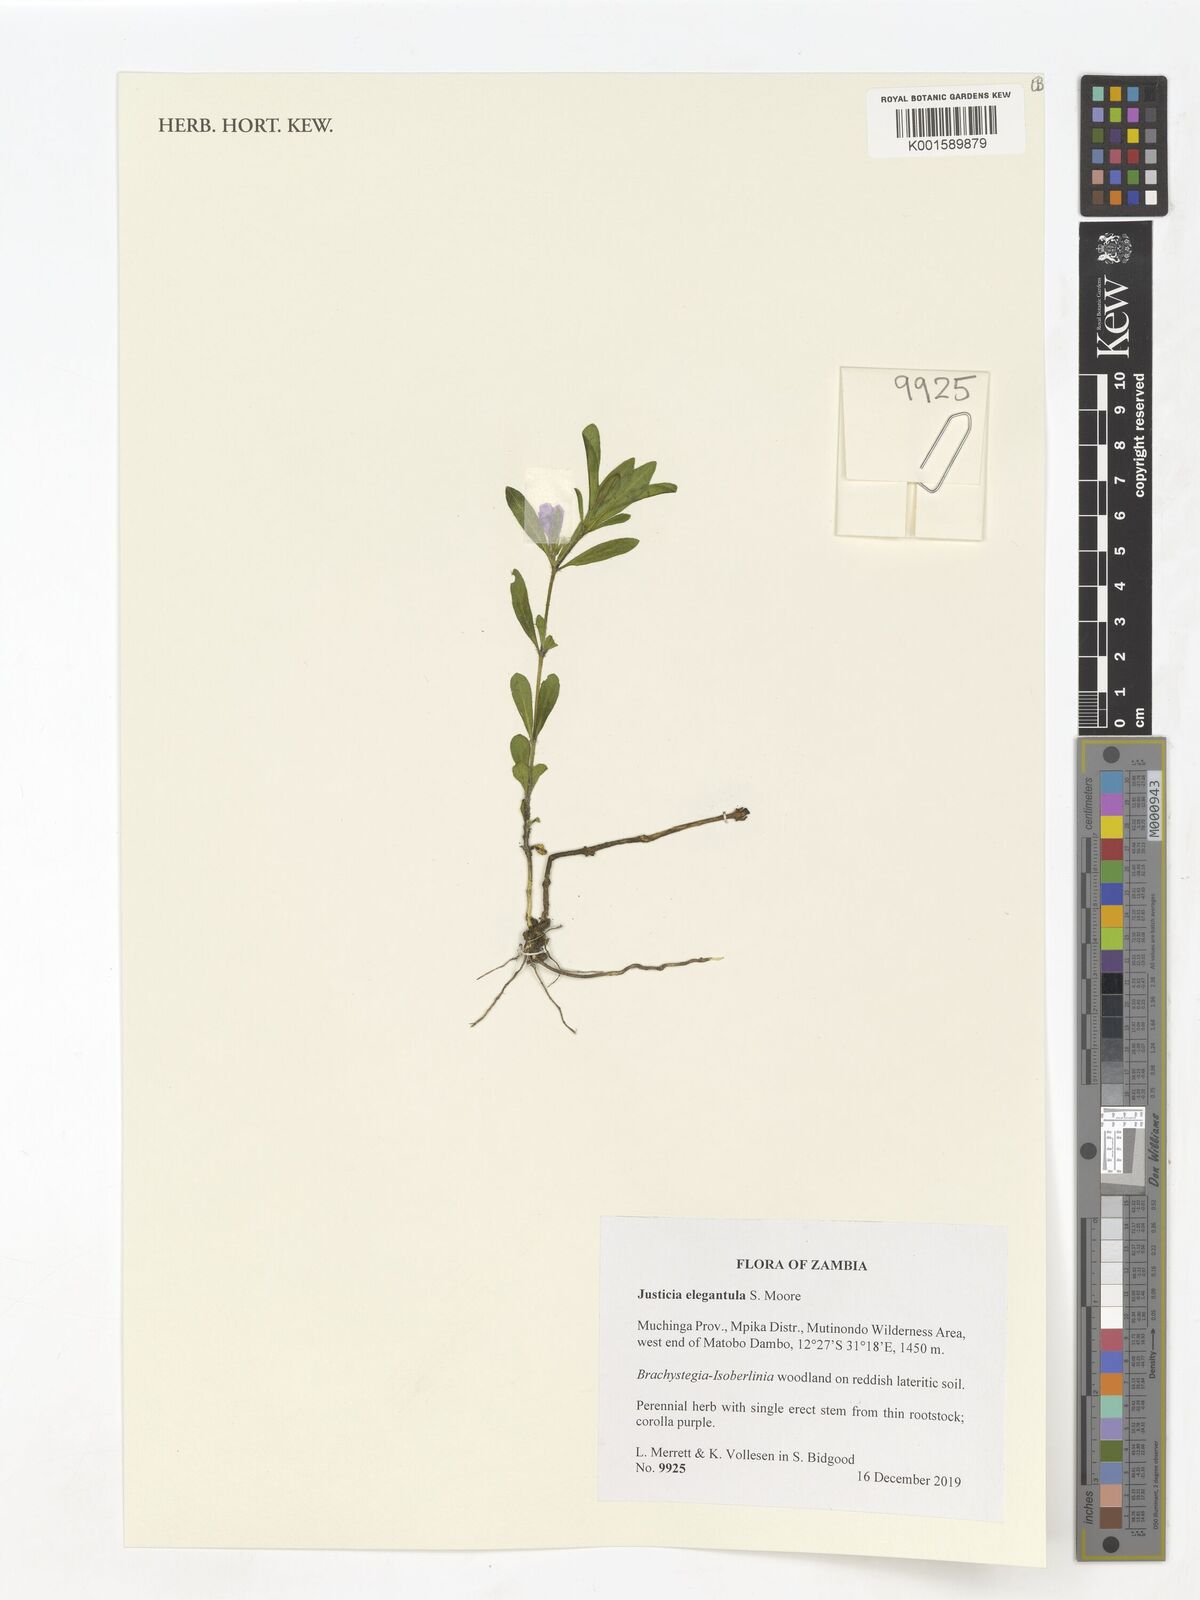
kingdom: Plantae
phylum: Tracheophyta
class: Magnoliopsida
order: Lamiales
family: Acanthaceae
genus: Justicia
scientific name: Justicia elegantula
